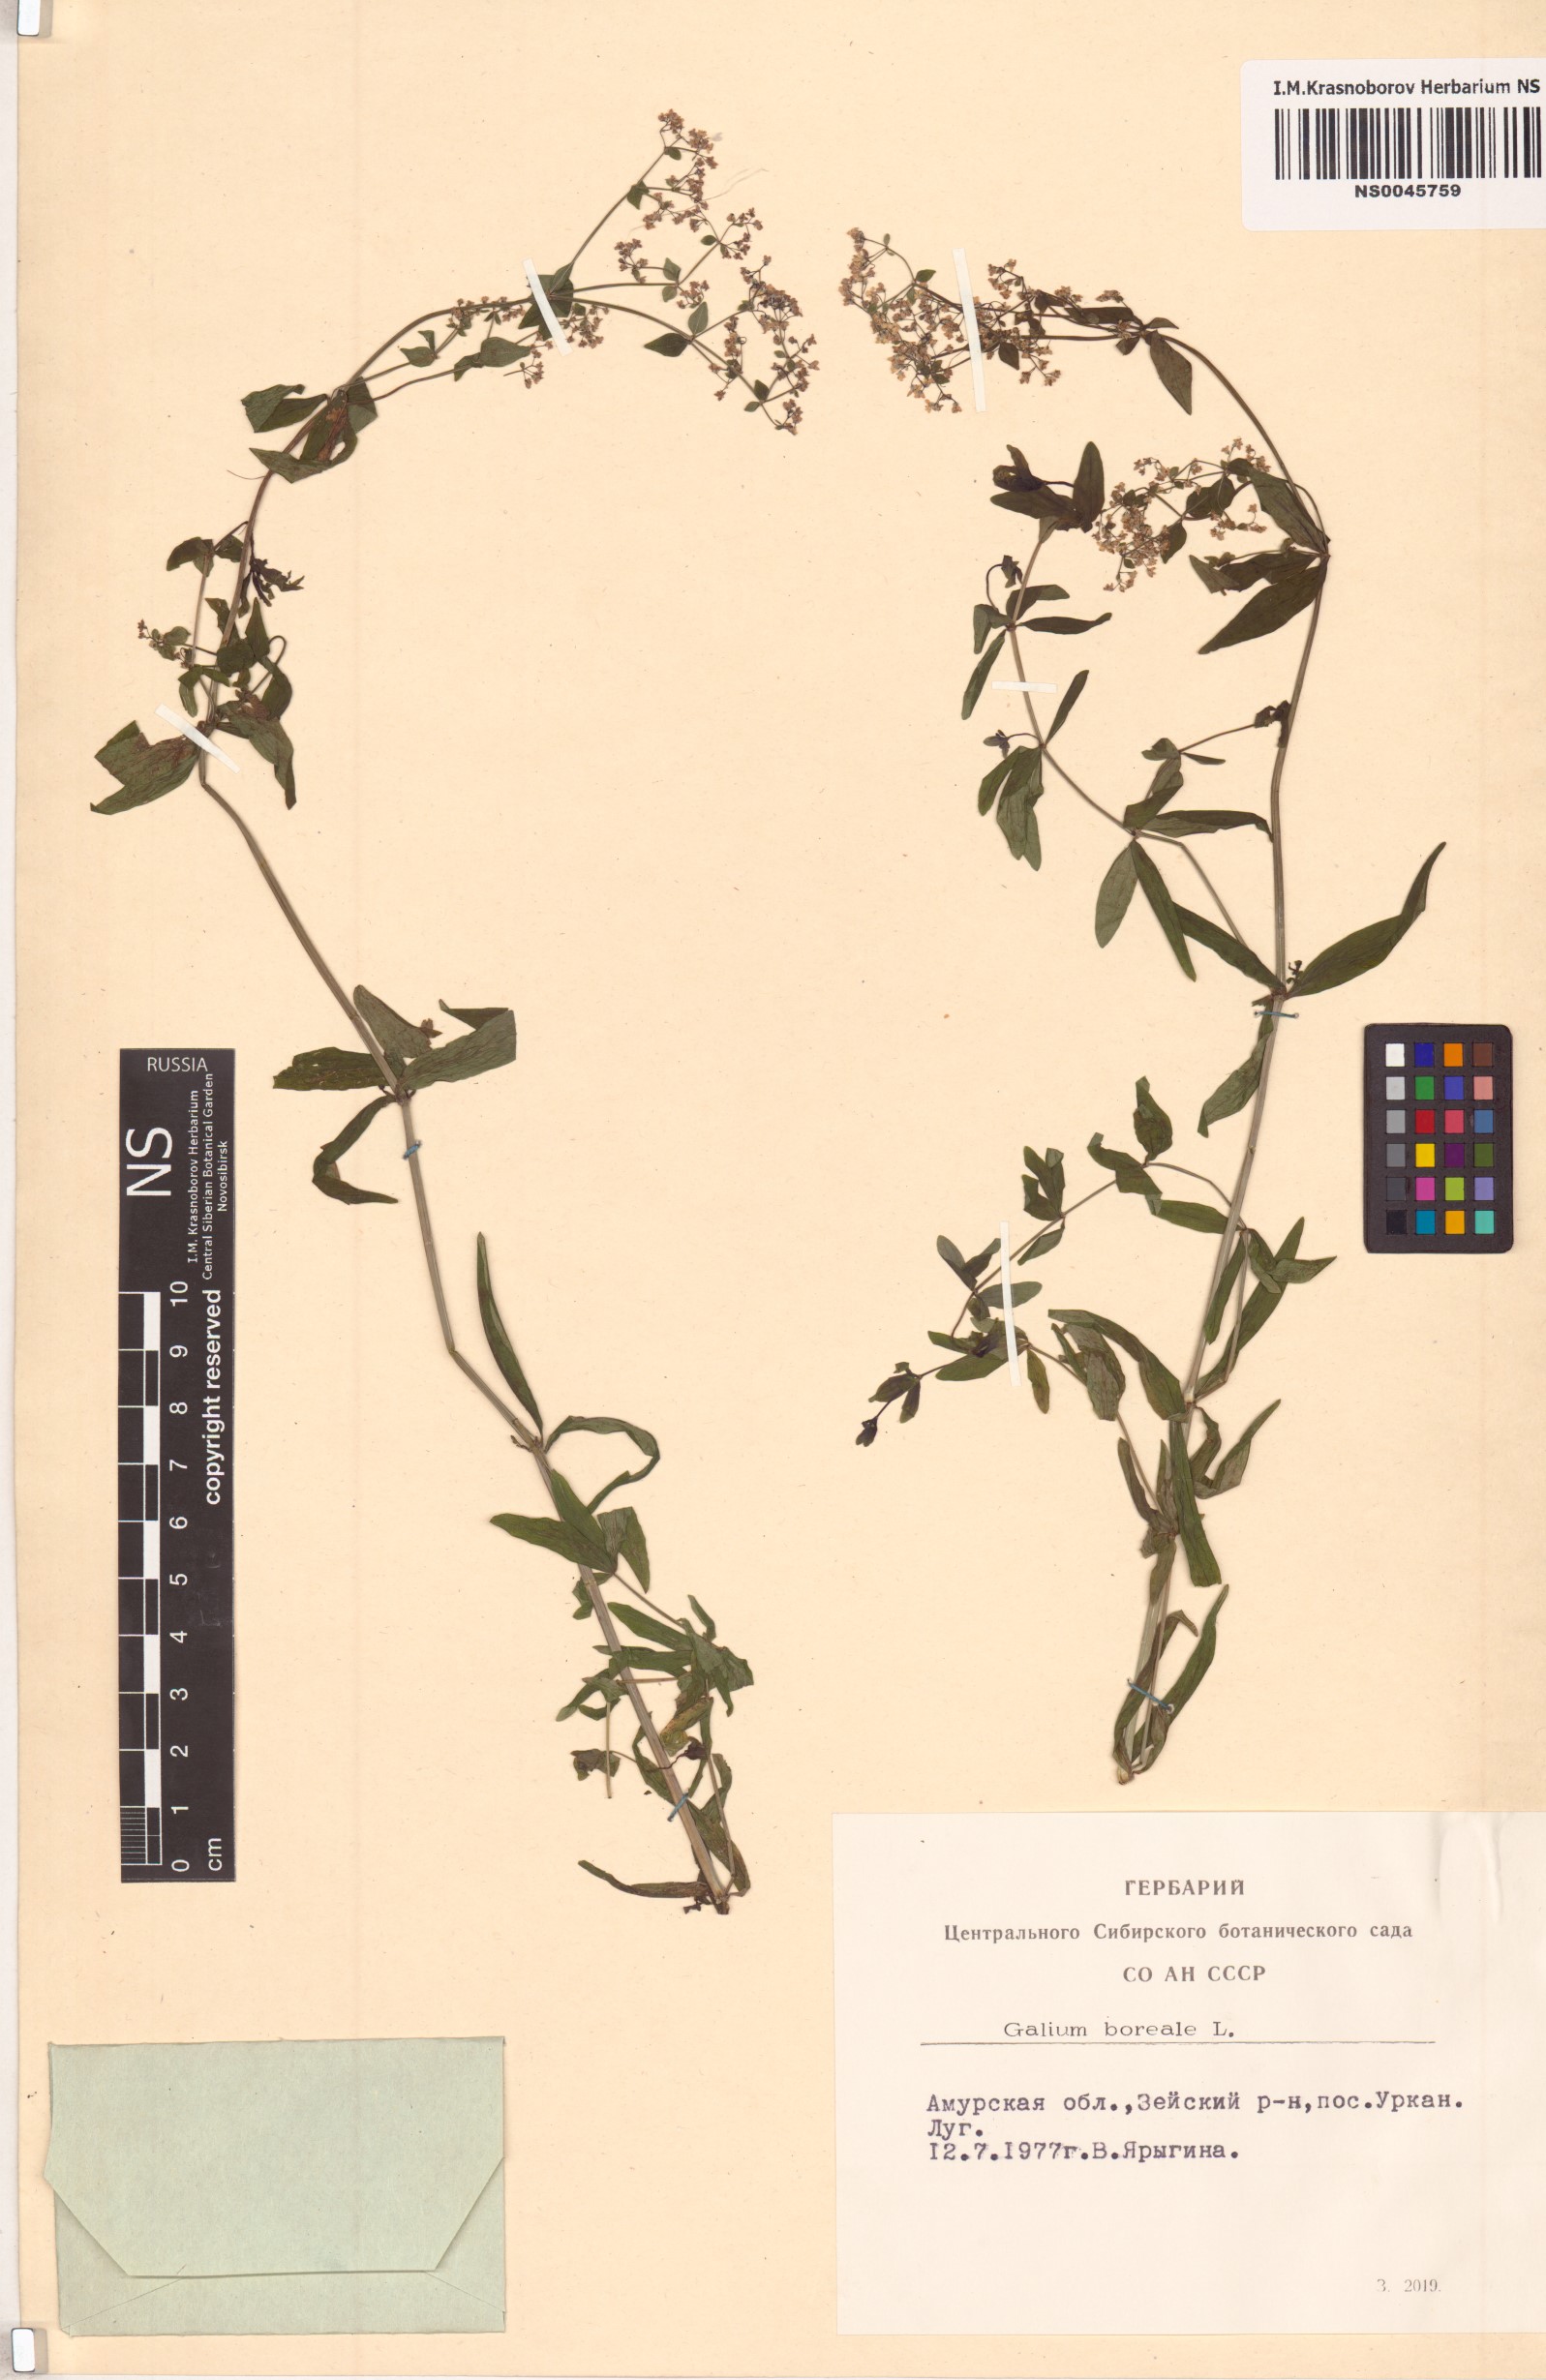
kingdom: Plantae
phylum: Tracheophyta
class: Magnoliopsida
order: Gentianales
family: Rubiaceae
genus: Galium
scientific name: Galium boreale
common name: Northern bedstraw
